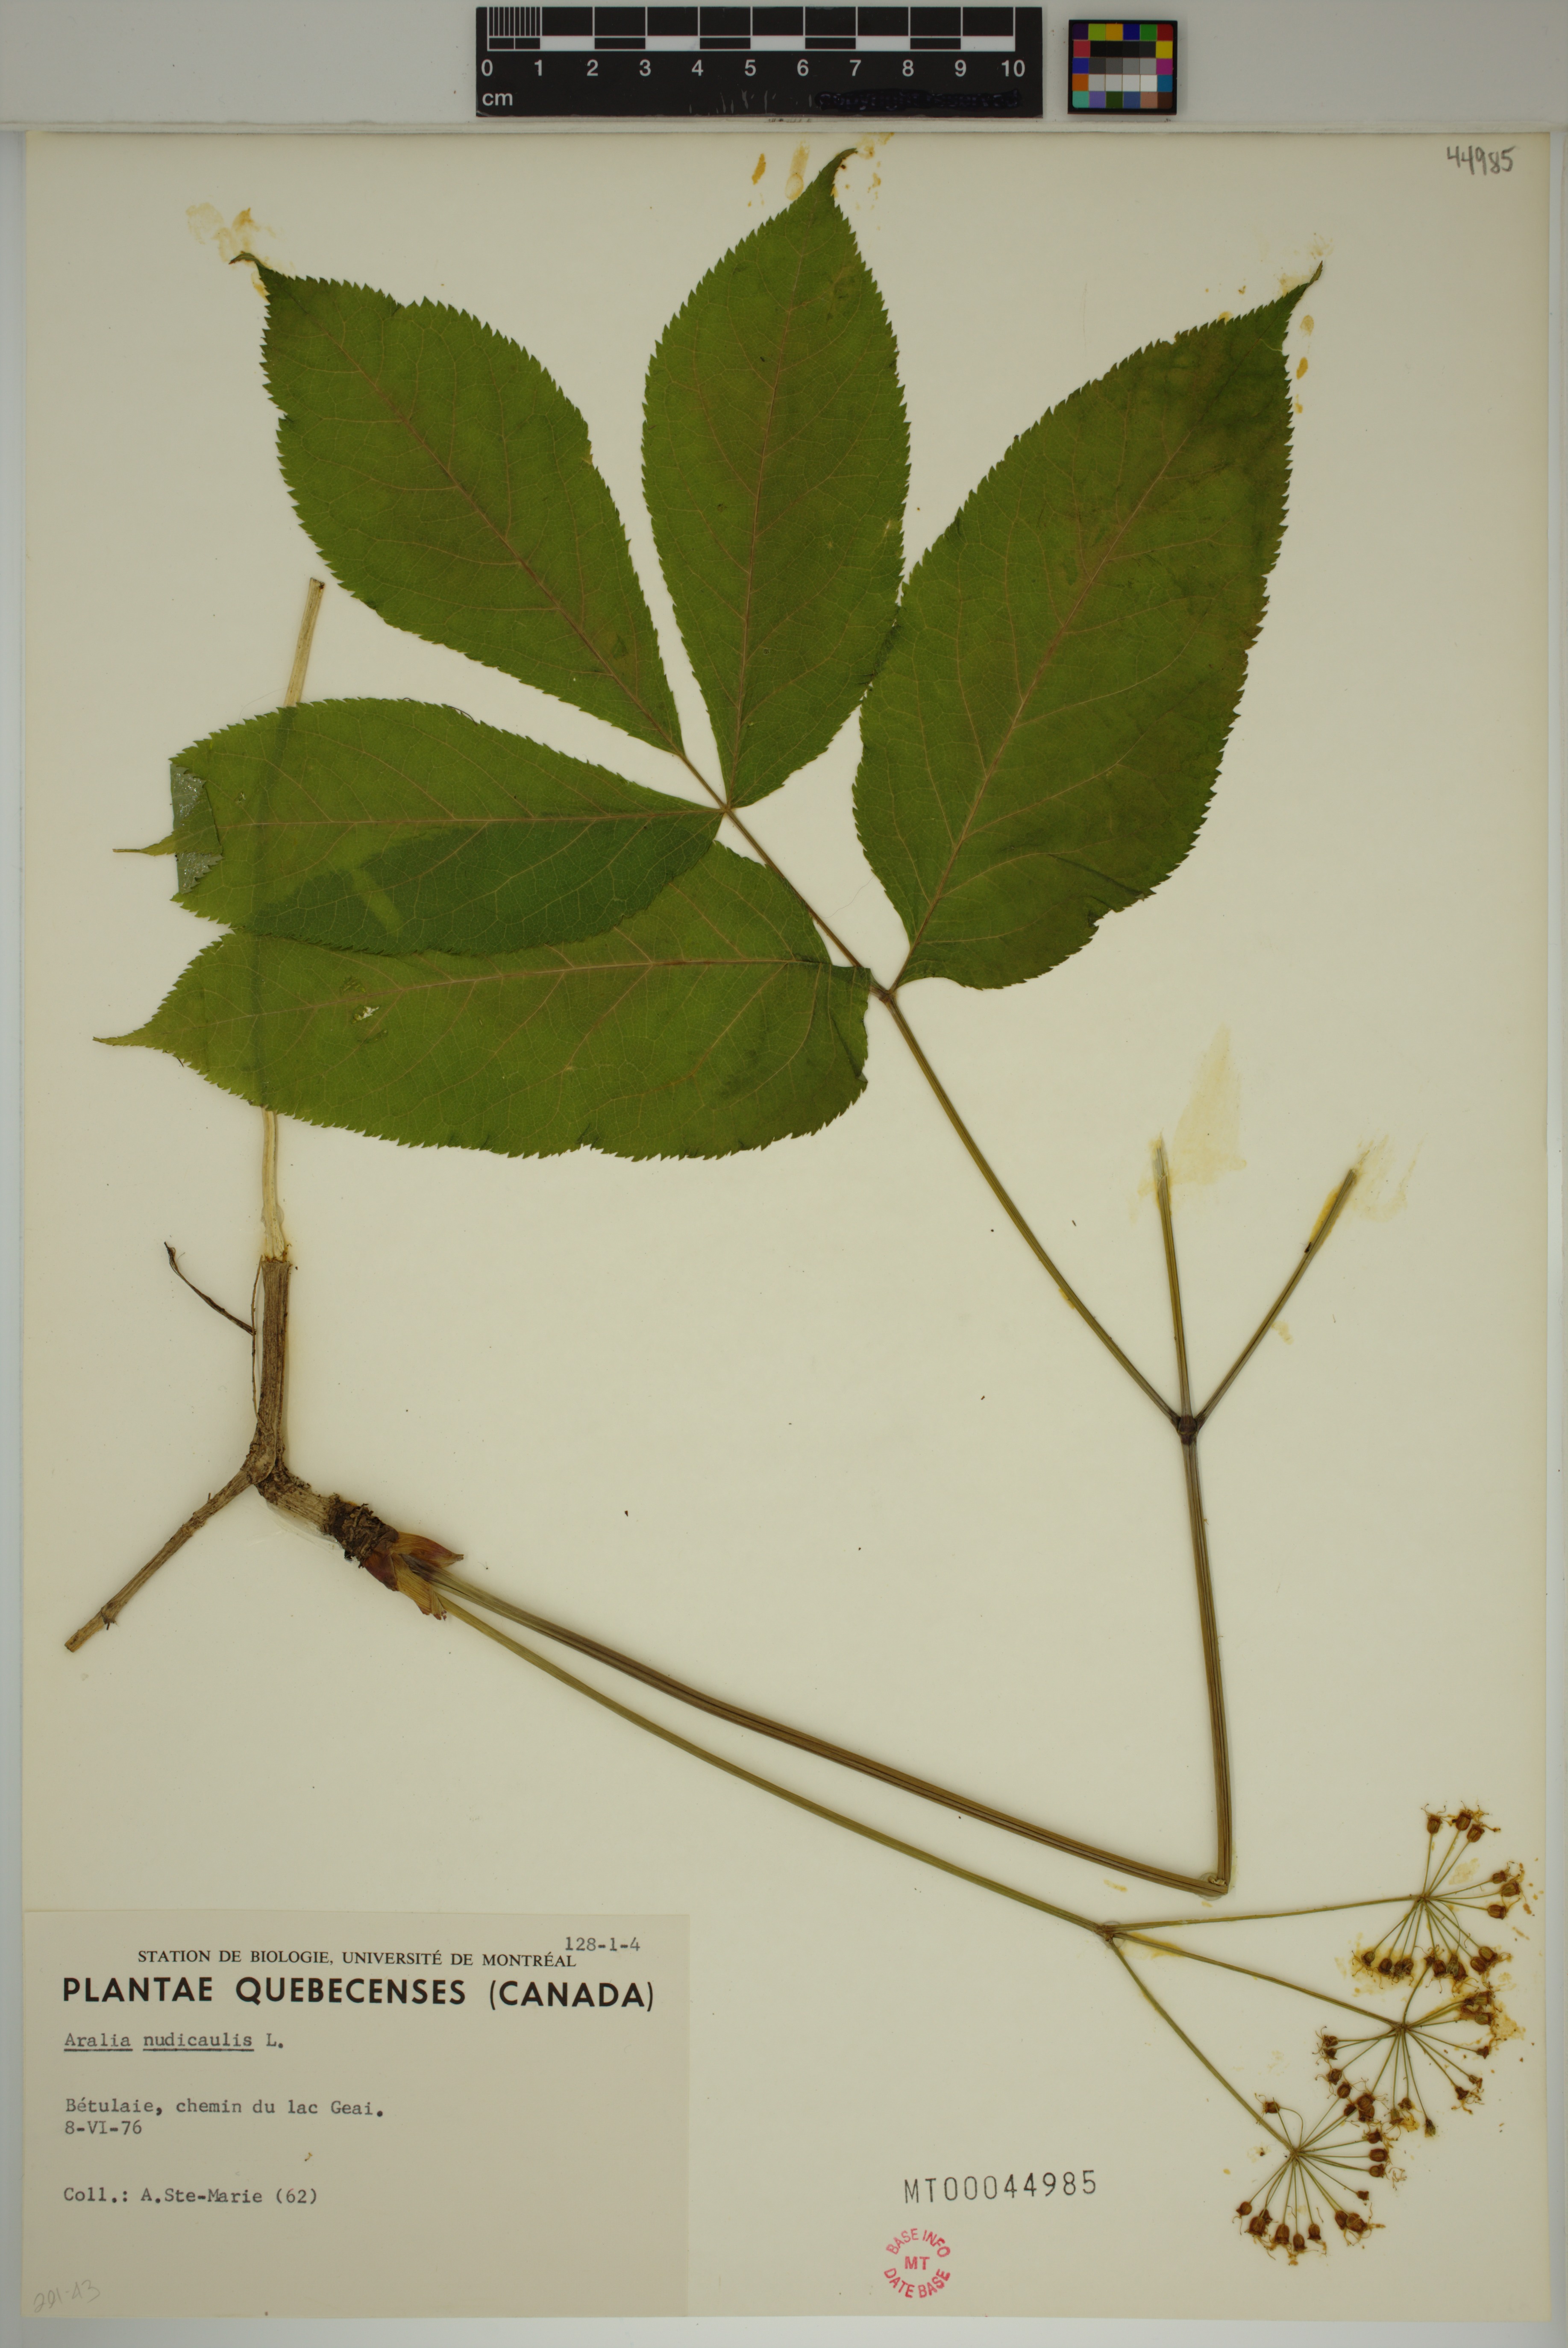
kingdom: Plantae
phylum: Tracheophyta
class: Magnoliopsida
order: Apiales
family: Araliaceae
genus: Aralia
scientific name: Aralia nudicaulis
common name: Wild sarsaparilla
